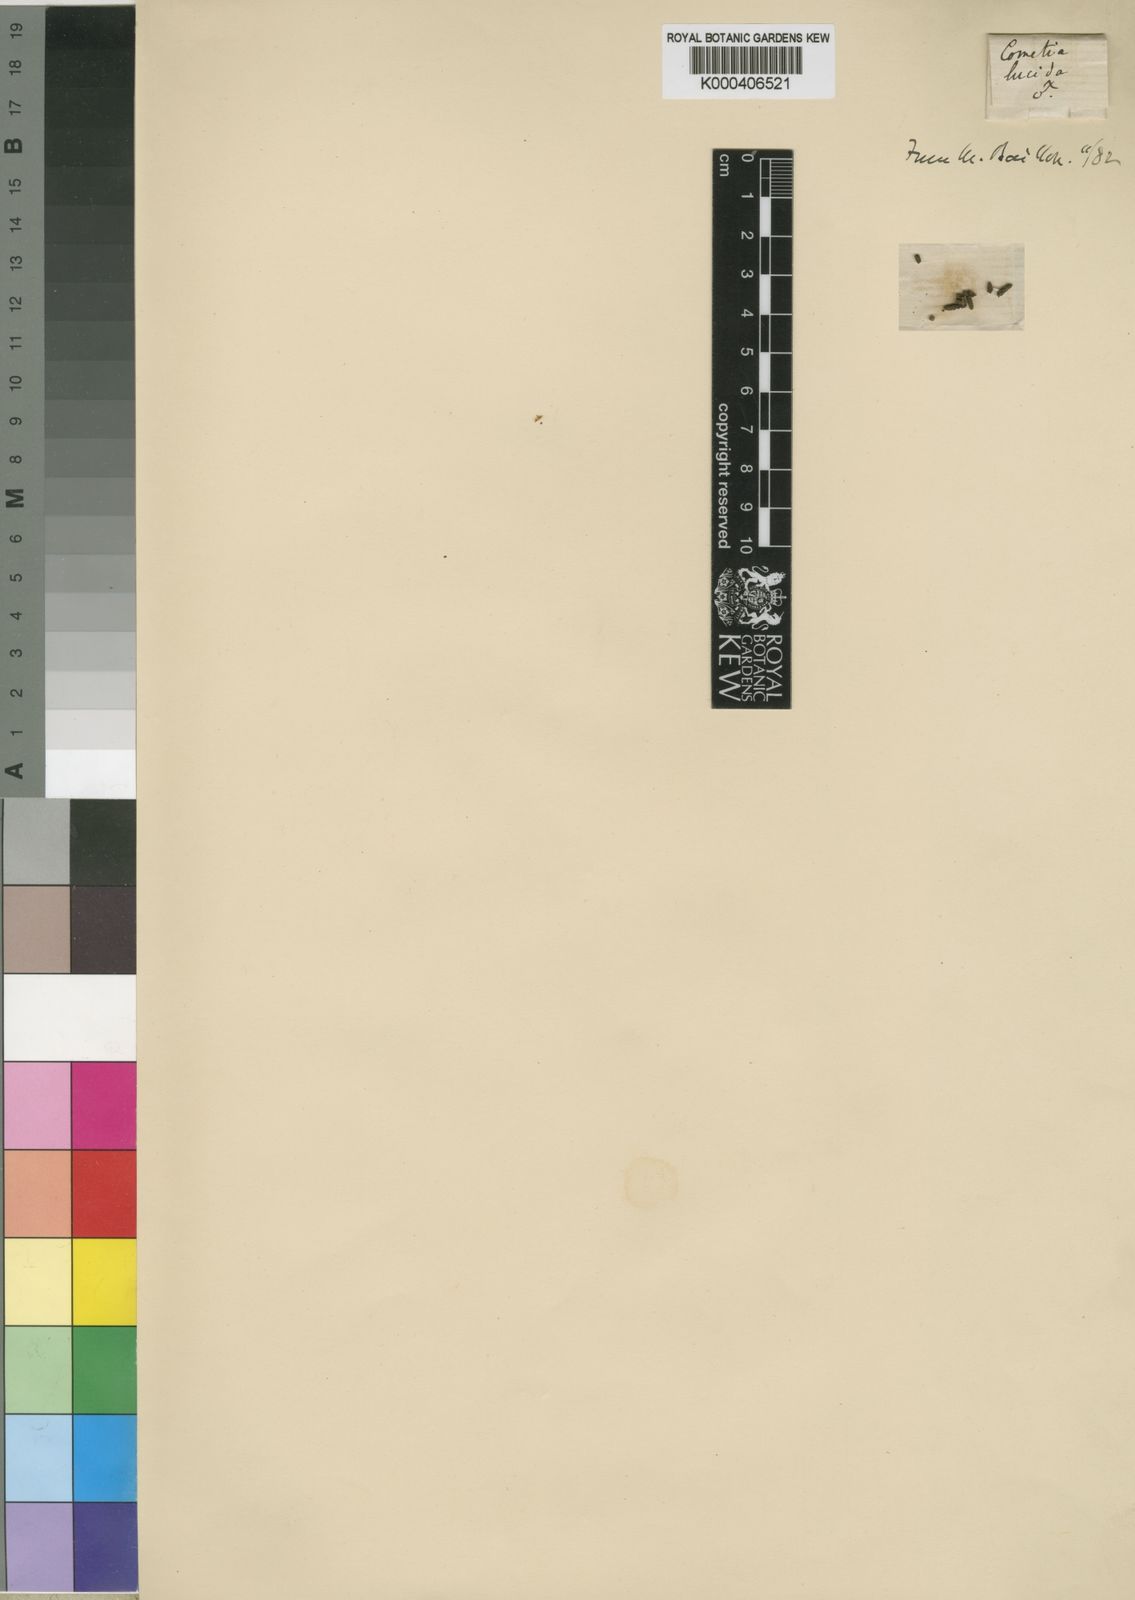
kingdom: Plantae
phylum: Tracheophyta
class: Magnoliopsida
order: Malpighiales
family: Phyllanthaceae
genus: Thecacoris
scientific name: Thecacoris cometia
